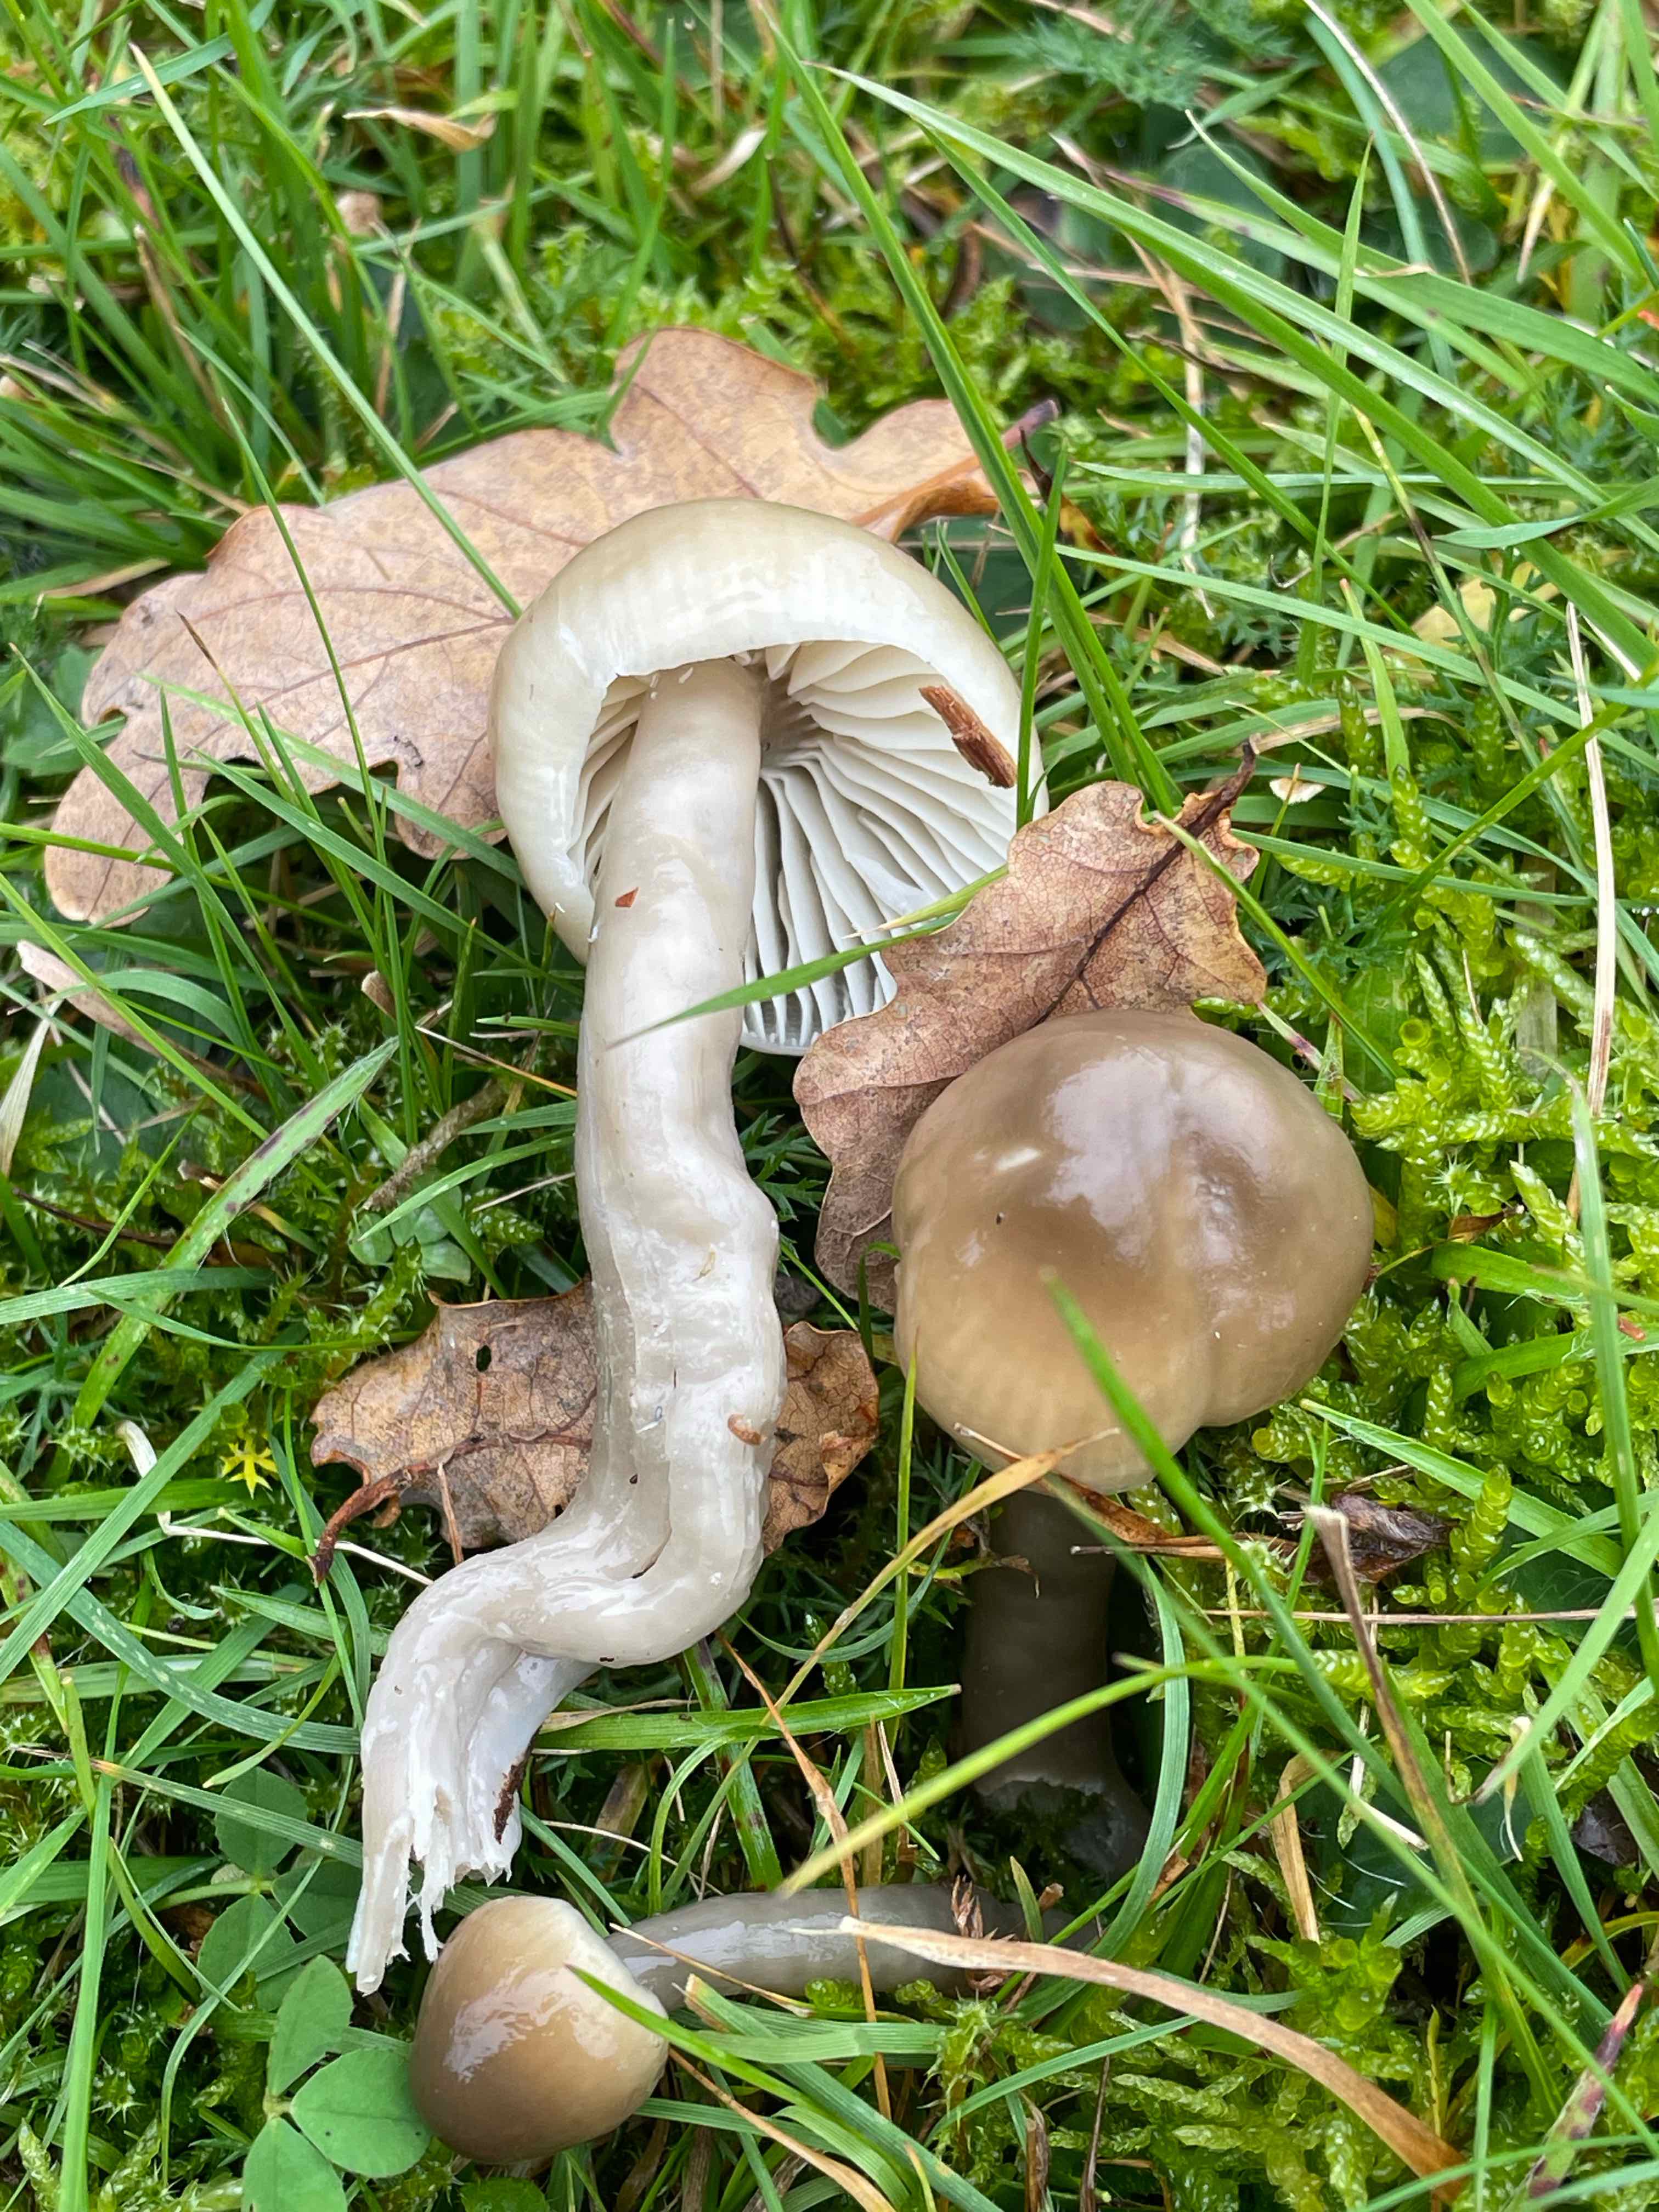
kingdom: Fungi
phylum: Basidiomycota
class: Agaricomycetes
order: Agaricales
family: Hygrophoraceae
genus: Gliophorus
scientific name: Gliophorus irrigatus
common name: slimet vokshat
